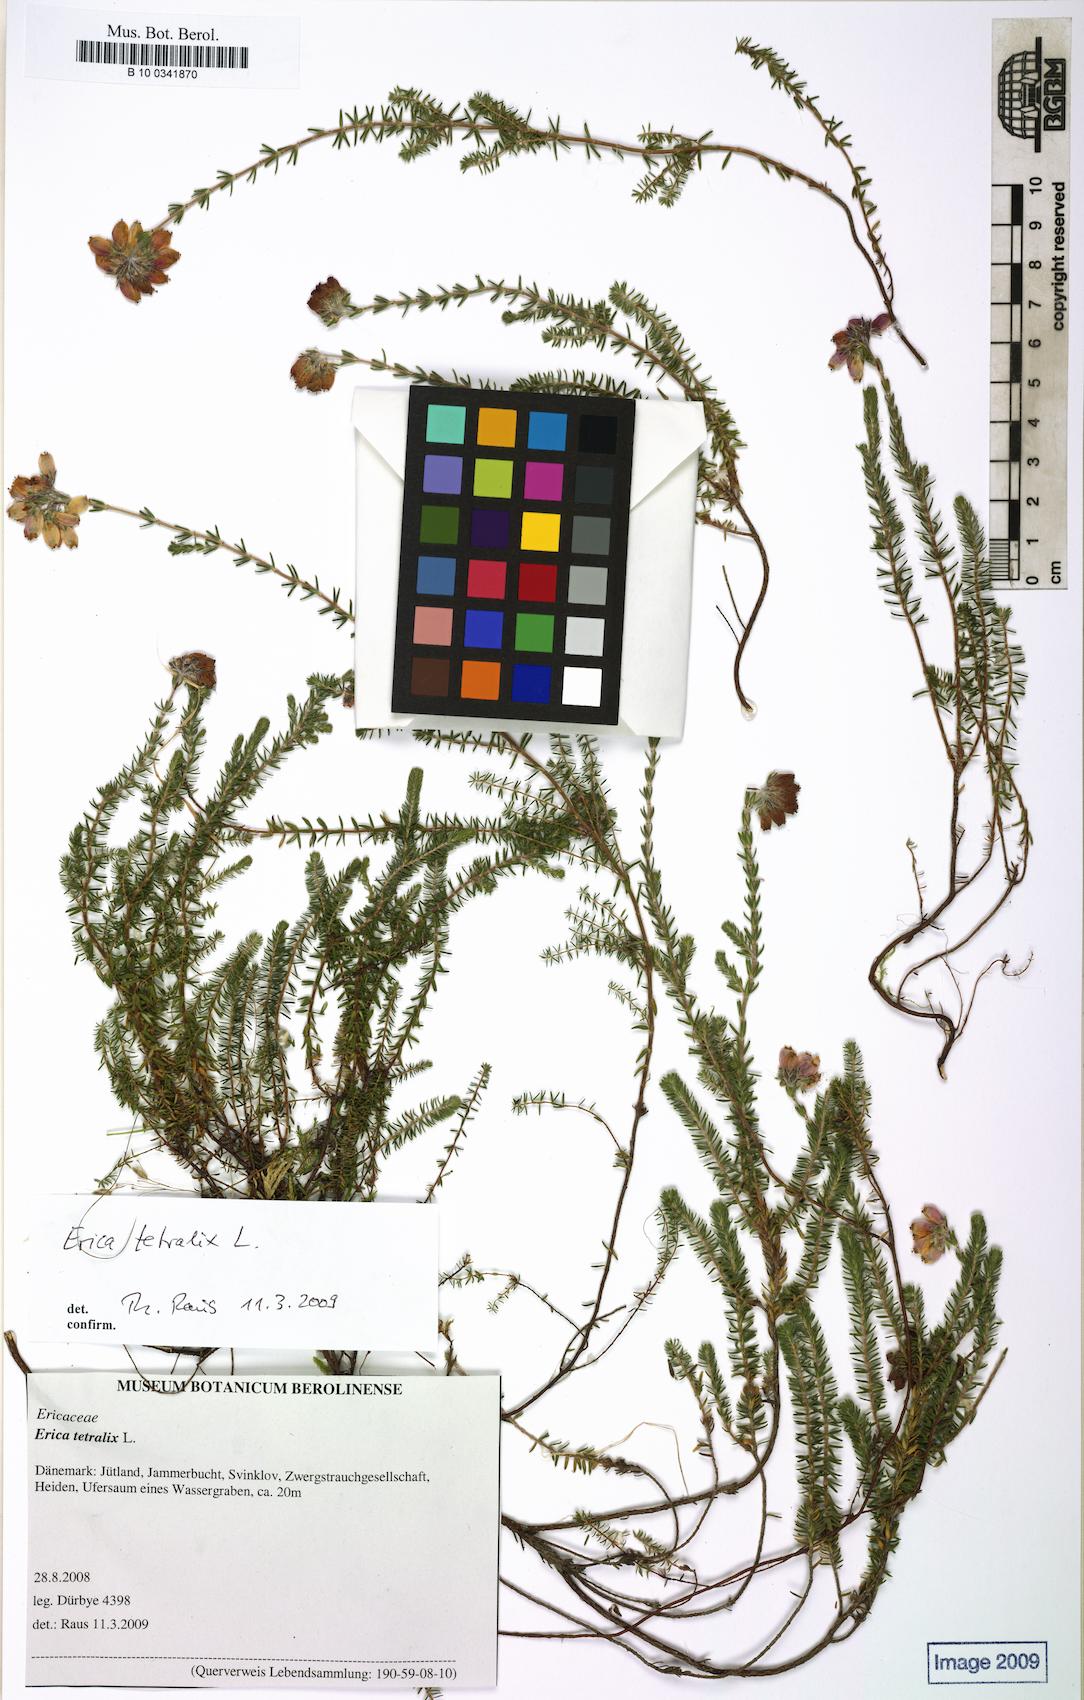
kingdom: Plantae
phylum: Tracheophyta
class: Magnoliopsida
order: Ericales
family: Ericaceae
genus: Erica
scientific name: Erica tetralix
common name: Cross-leaved heath
